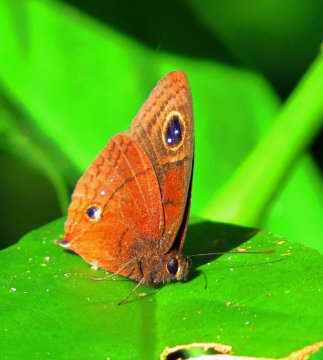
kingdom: Animalia
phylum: Arthropoda
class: Insecta
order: Lepidoptera
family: Nymphalidae
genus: Calisto
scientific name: Calisto nubila
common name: Puerto Rican Calisto
